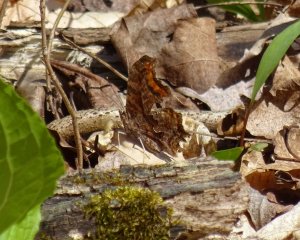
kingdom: Animalia
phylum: Arthropoda
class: Insecta
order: Lepidoptera
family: Nymphalidae
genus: Polygonia
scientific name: Polygonia comma
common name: Eastern Comma
